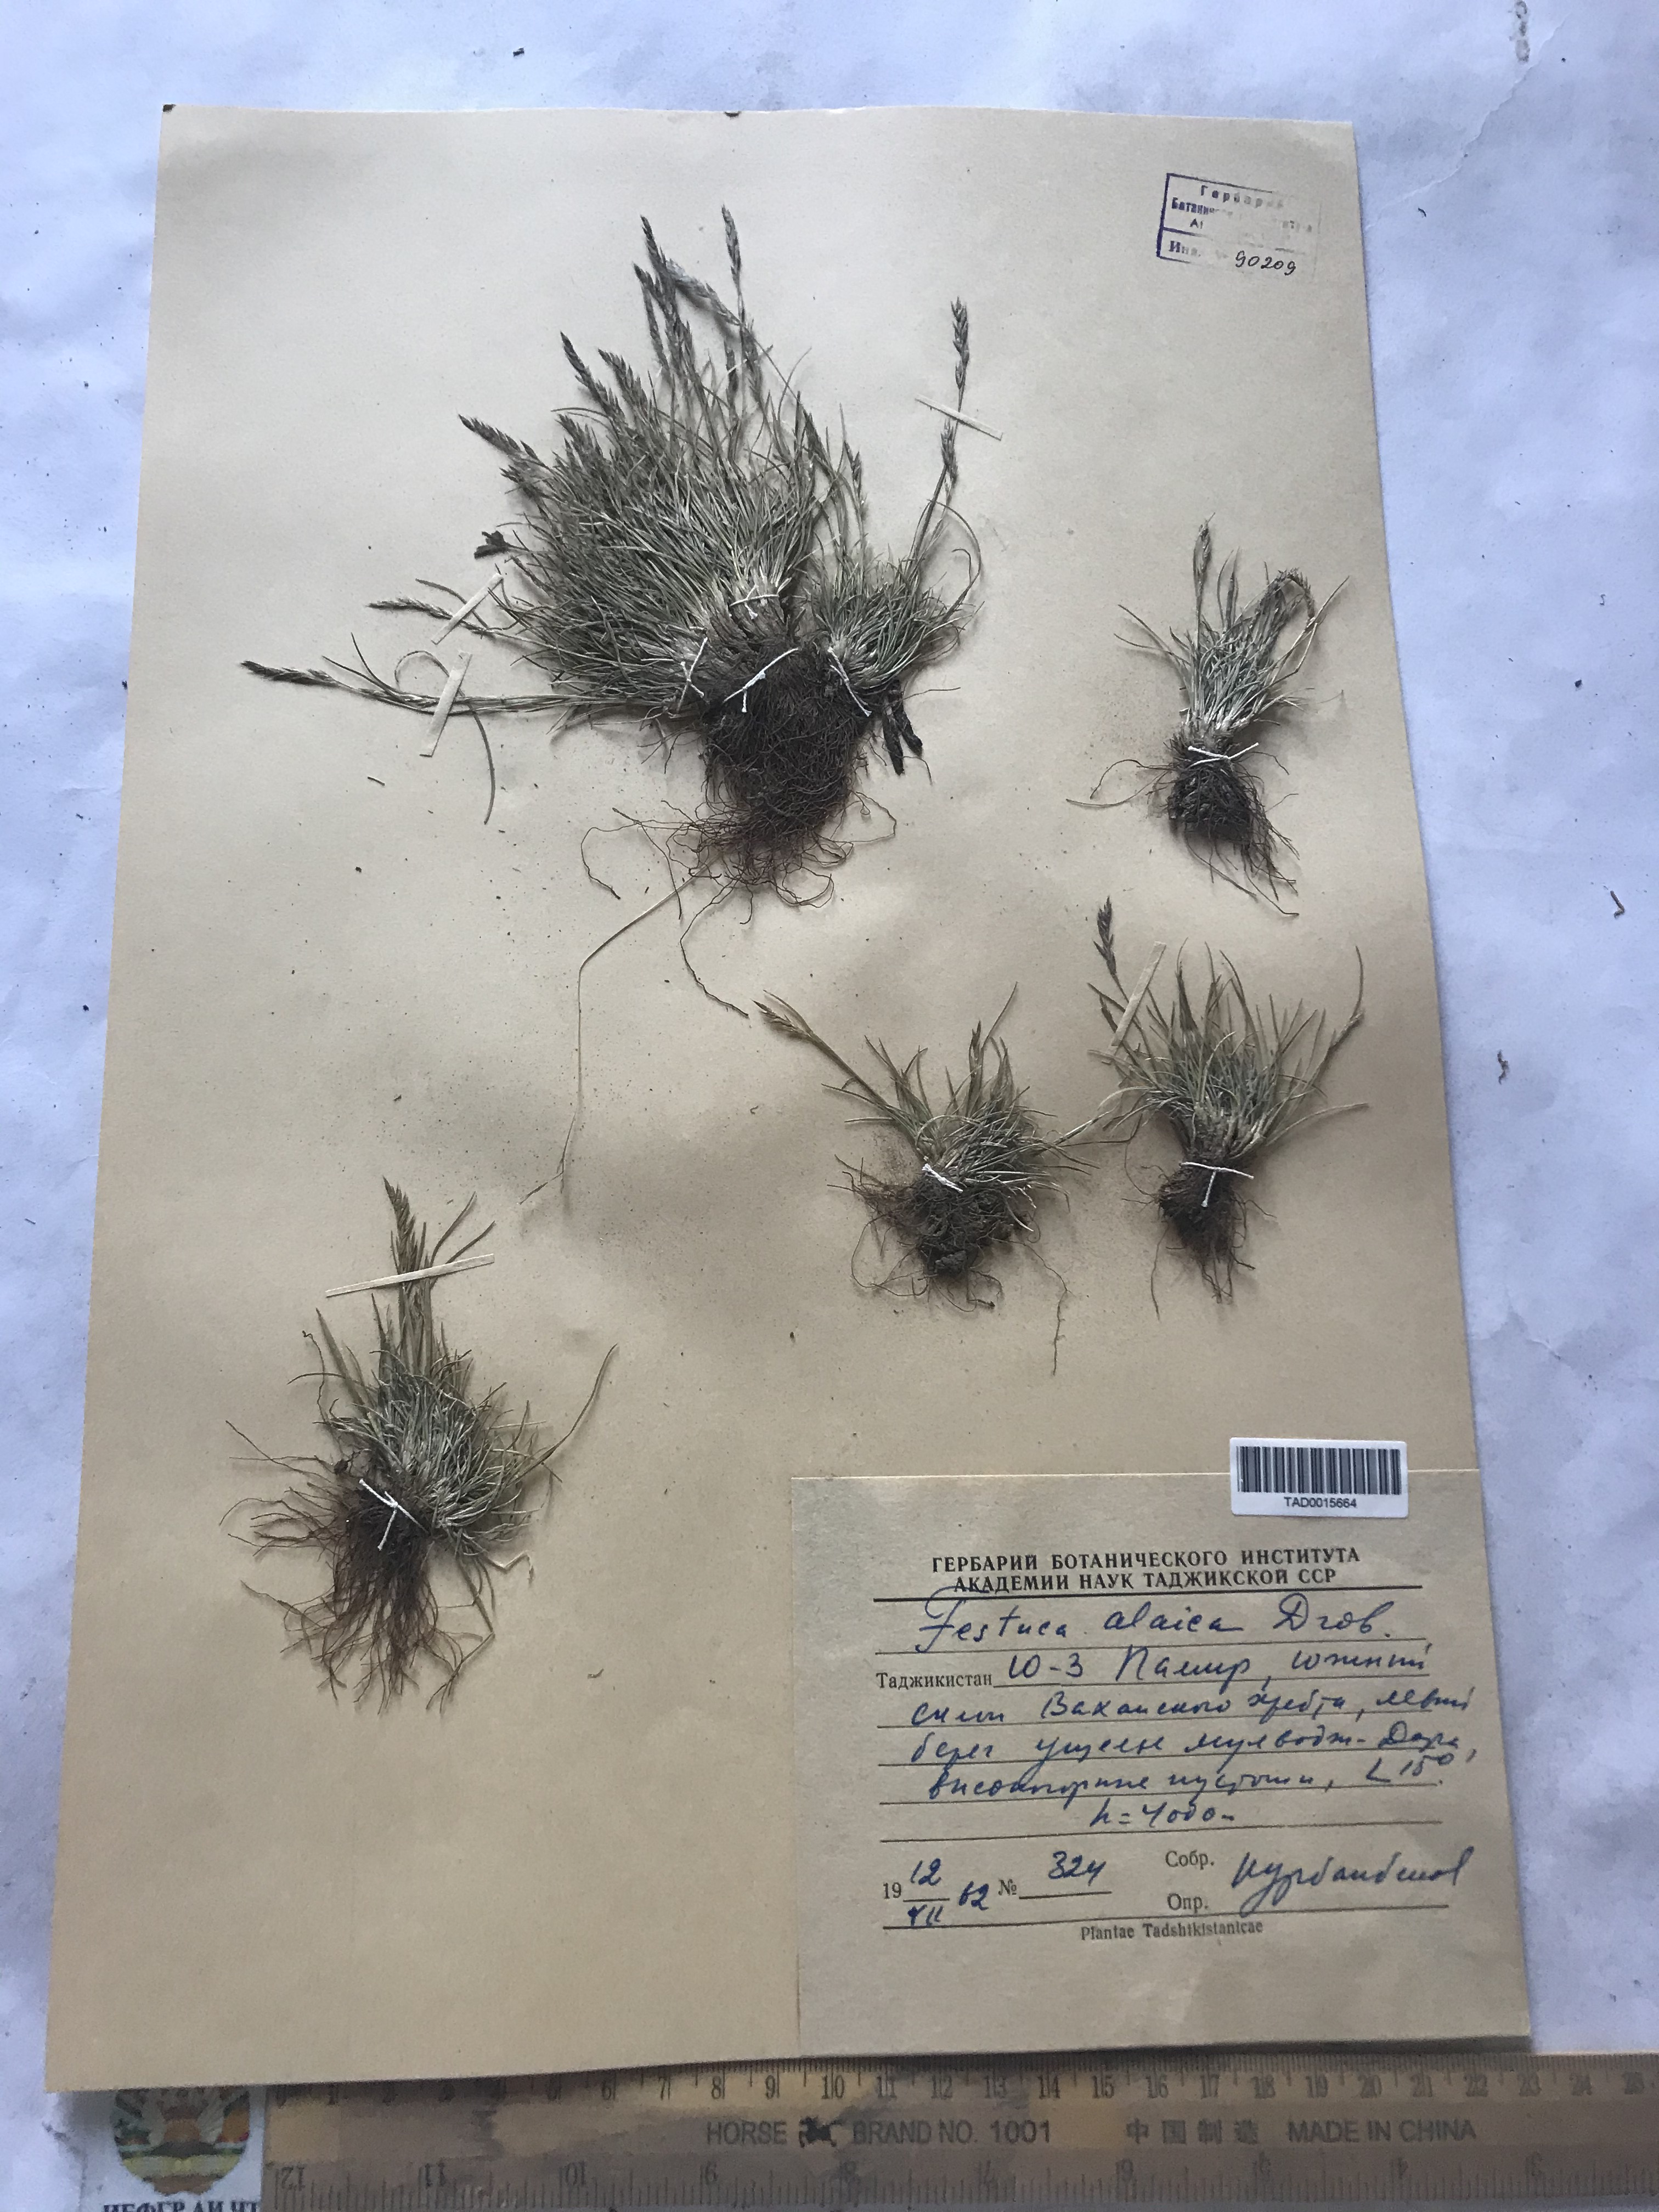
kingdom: Plantae
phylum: Tracheophyta
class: Liliopsida
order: Poales
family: Poaceae
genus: Festuca
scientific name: Festuca alaica
